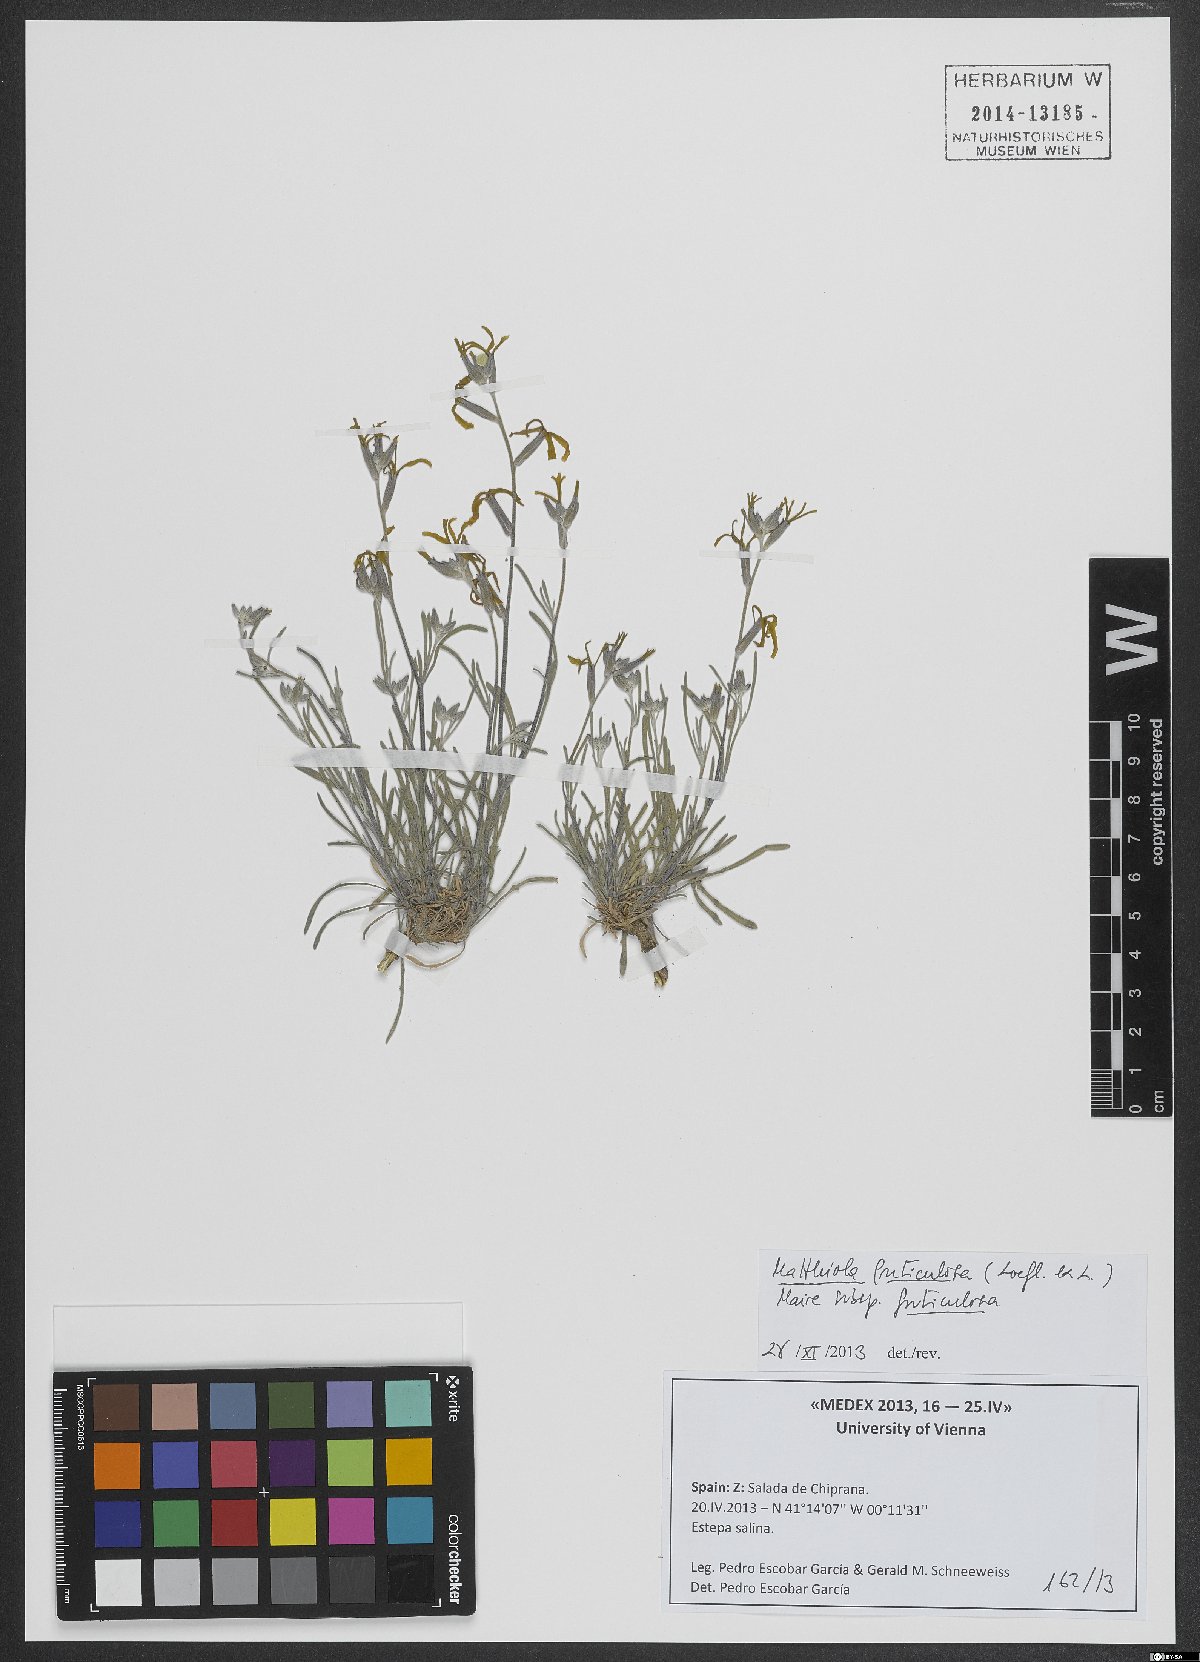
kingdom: Plantae
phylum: Tracheophyta
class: Magnoliopsida
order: Brassicales
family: Brassicaceae
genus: Matthiola
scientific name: Matthiola fruticulosa
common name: Sad stock
